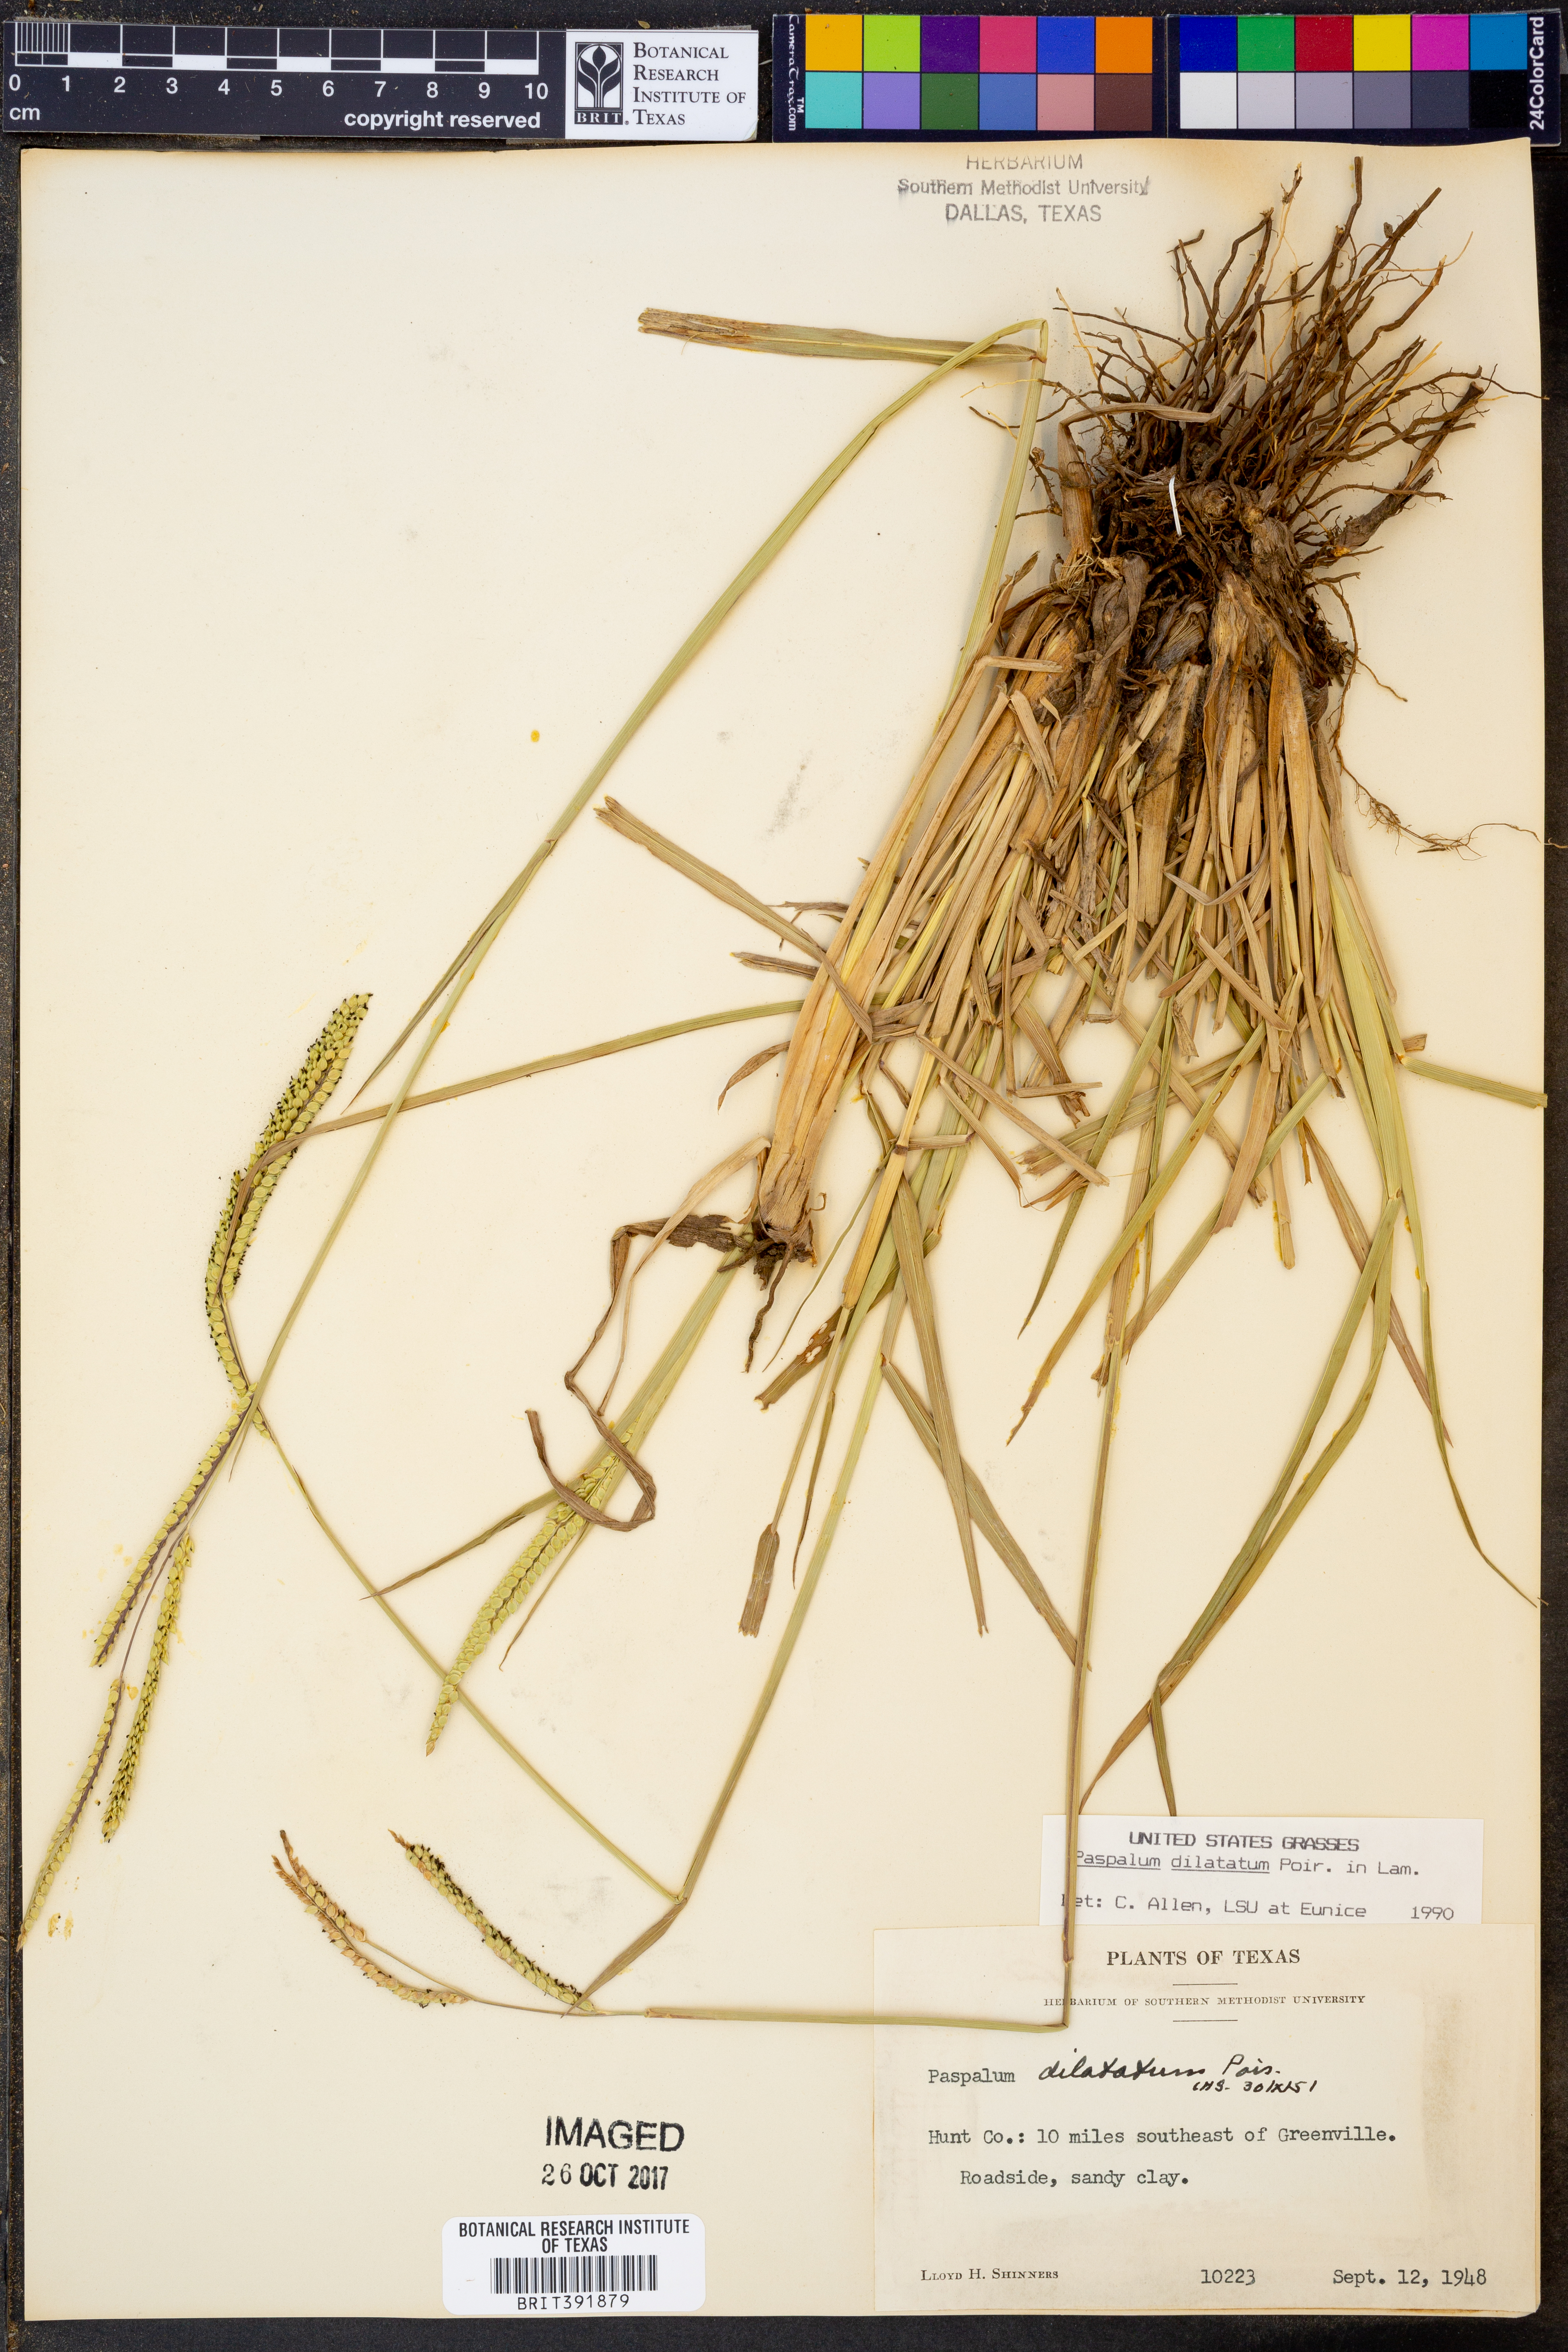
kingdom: Plantae
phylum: Tracheophyta
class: Liliopsida
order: Poales
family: Poaceae
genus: Paspalum
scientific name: Paspalum dilatatum
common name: Dallisgrass
